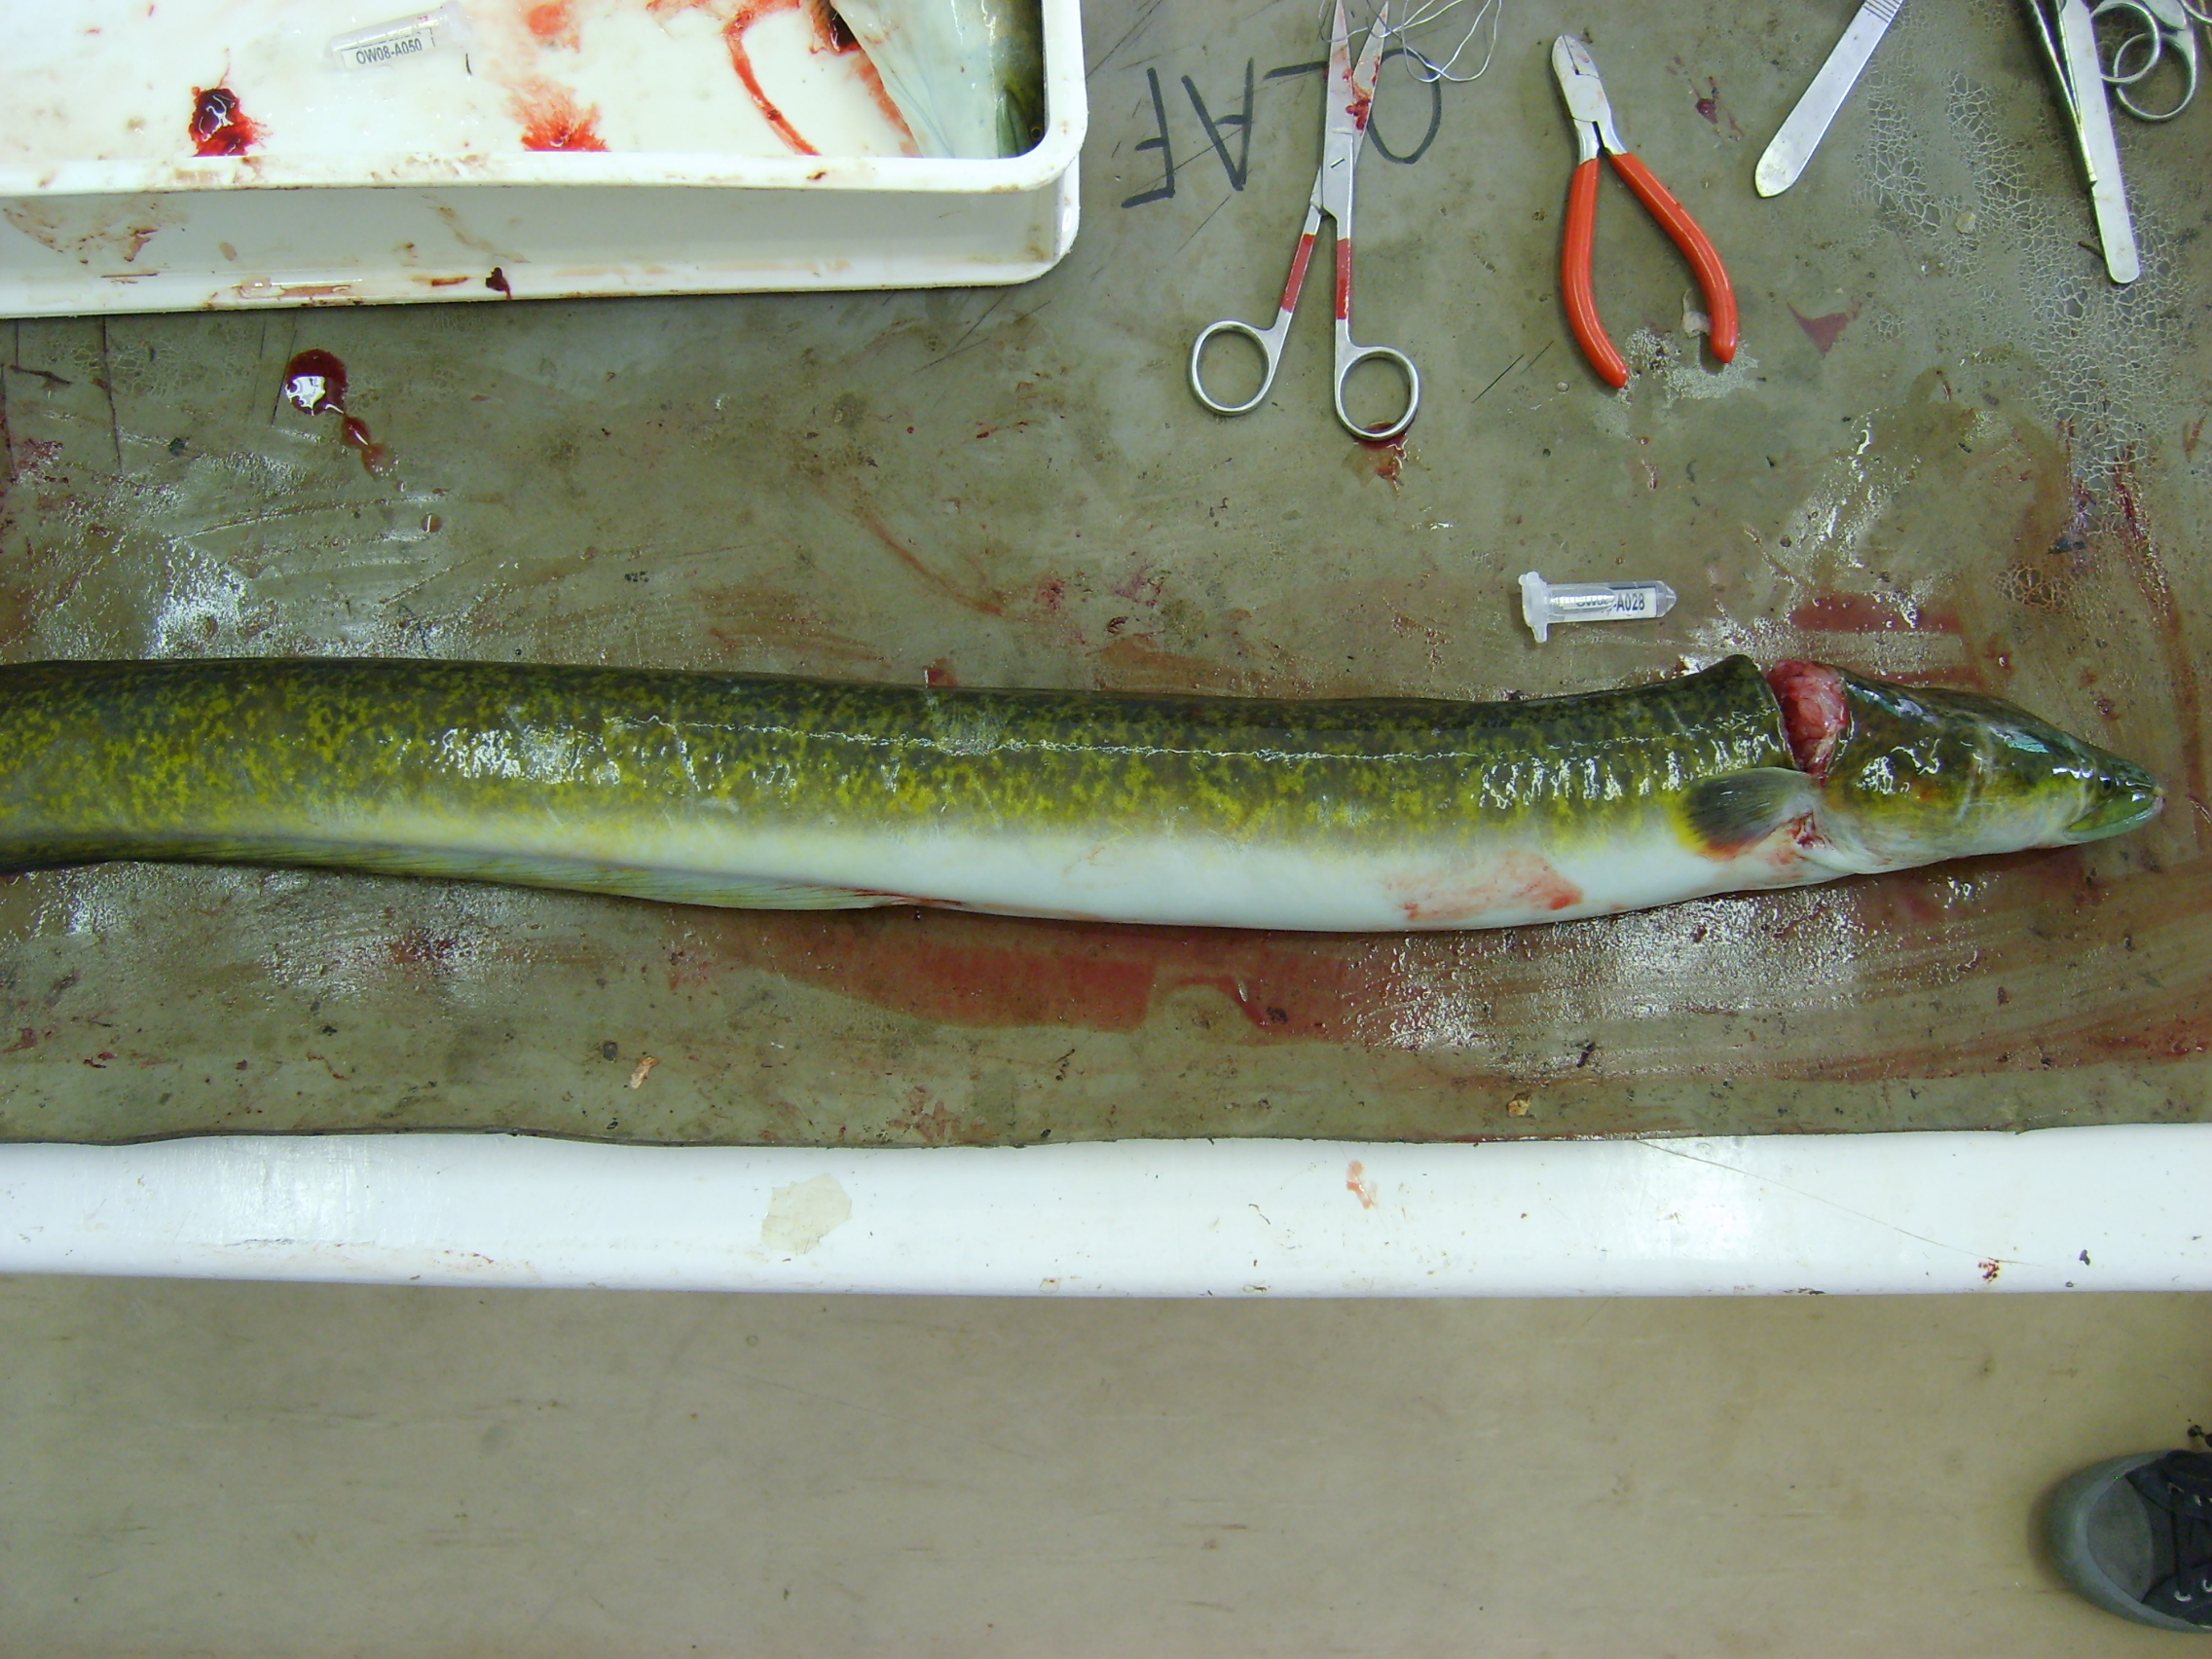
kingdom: Animalia
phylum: Chordata
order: Anguilliformes
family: Anguillidae
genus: Anguilla
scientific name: Anguilla marmorata
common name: Giant mottled eel
